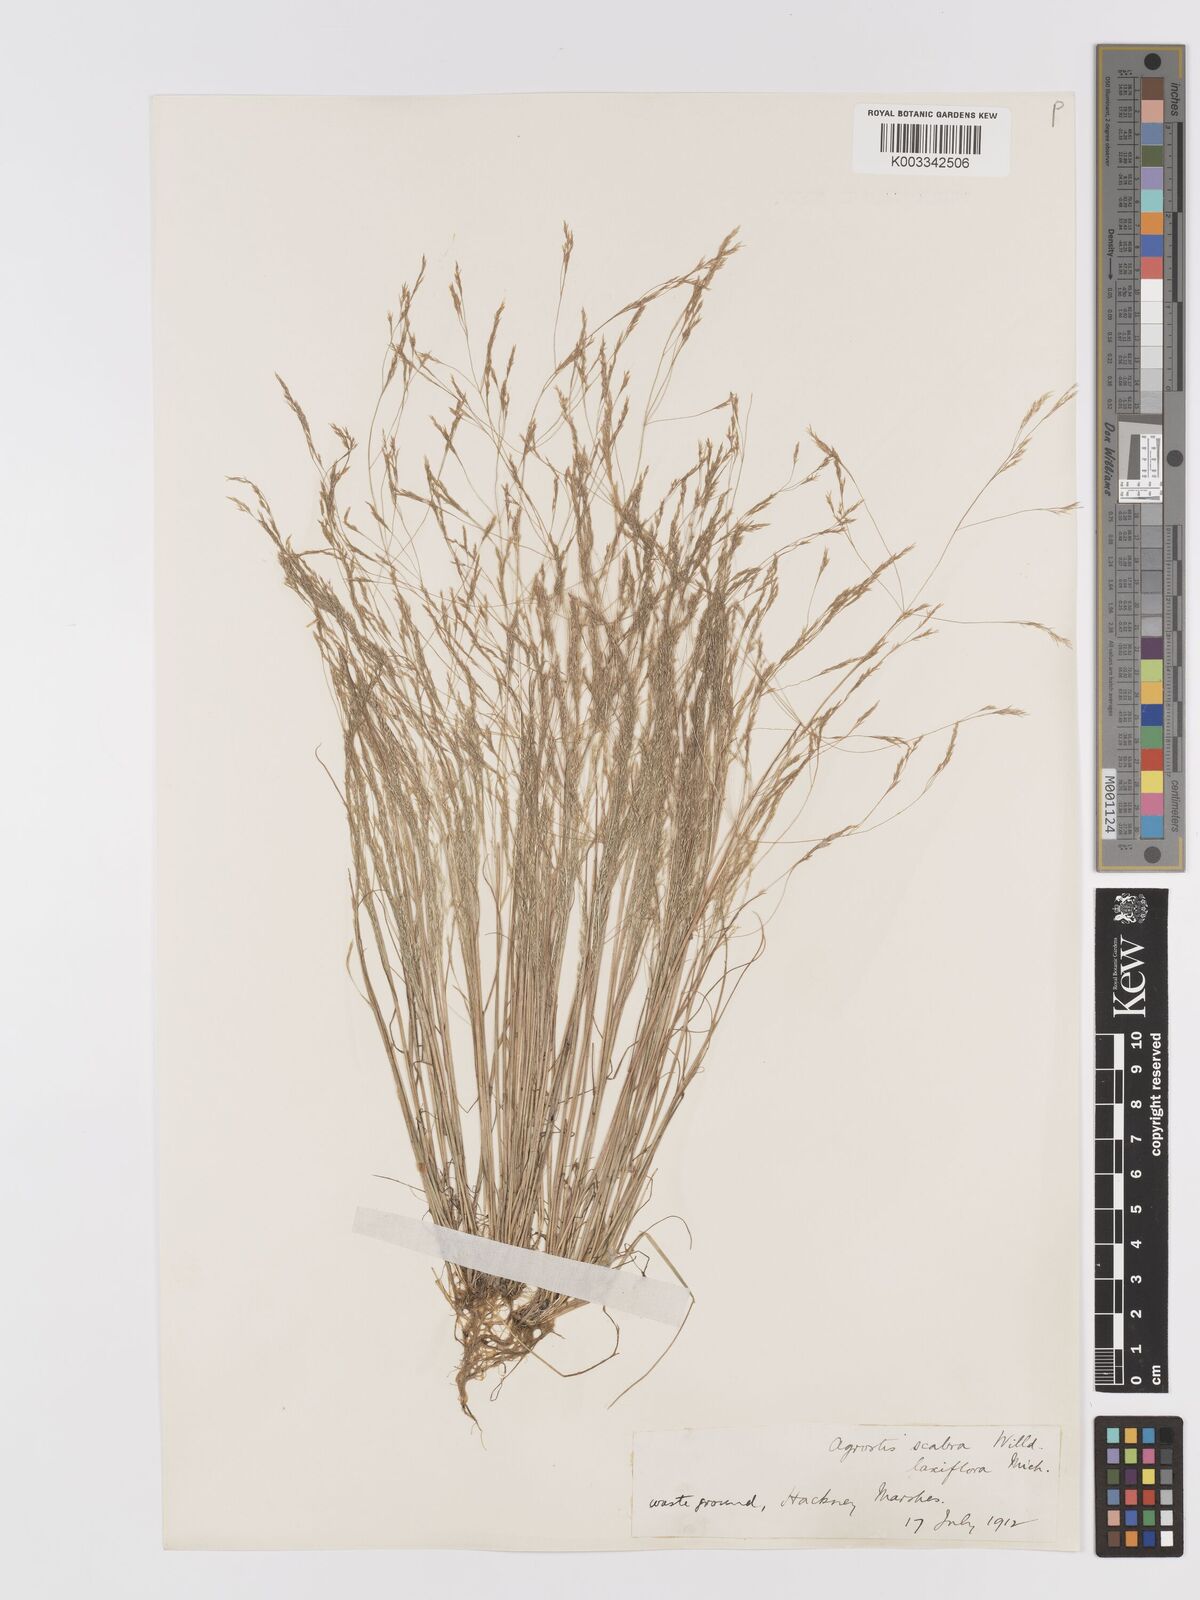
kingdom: Plantae
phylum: Tracheophyta
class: Liliopsida
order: Poales
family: Poaceae
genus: Agrostis
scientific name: Agrostis hyemalis
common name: Small bent
